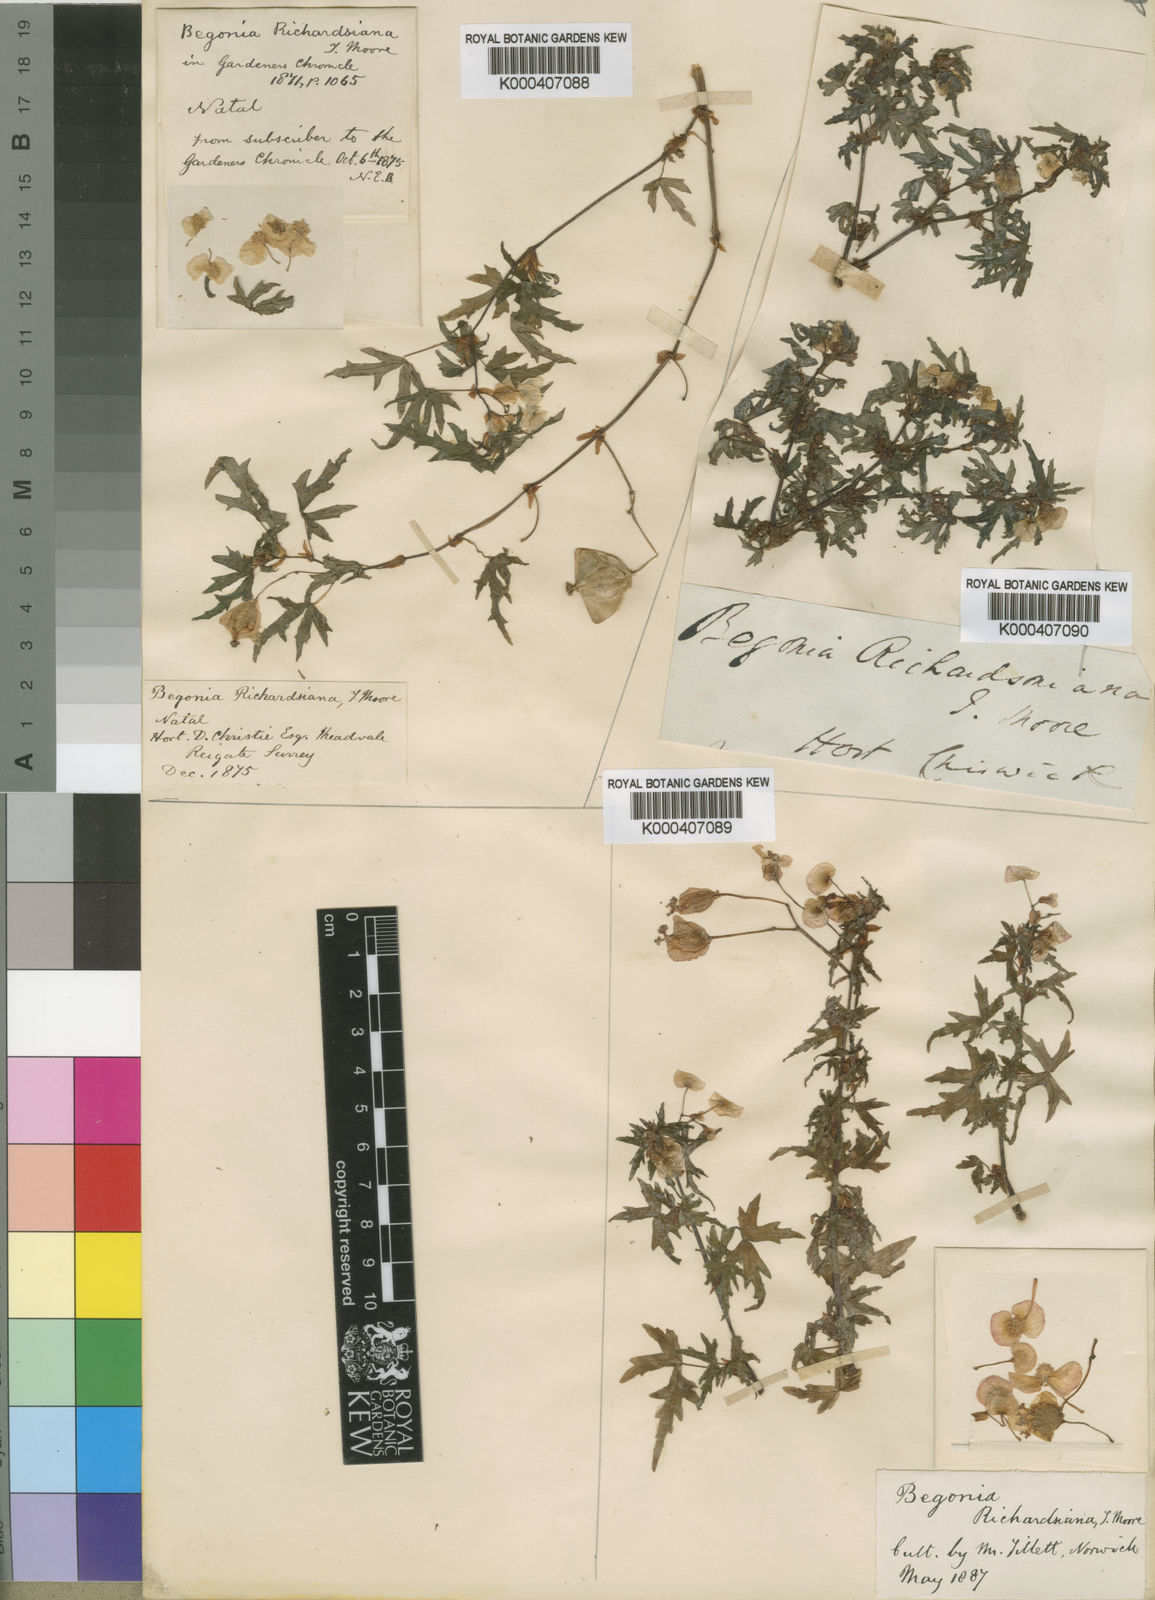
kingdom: Plantae
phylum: Tracheophyta
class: Magnoliopsida
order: Cucurbitales
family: Begoniaceae
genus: Begonia
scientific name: Begonia dregei
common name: Grape-leaf begonia
